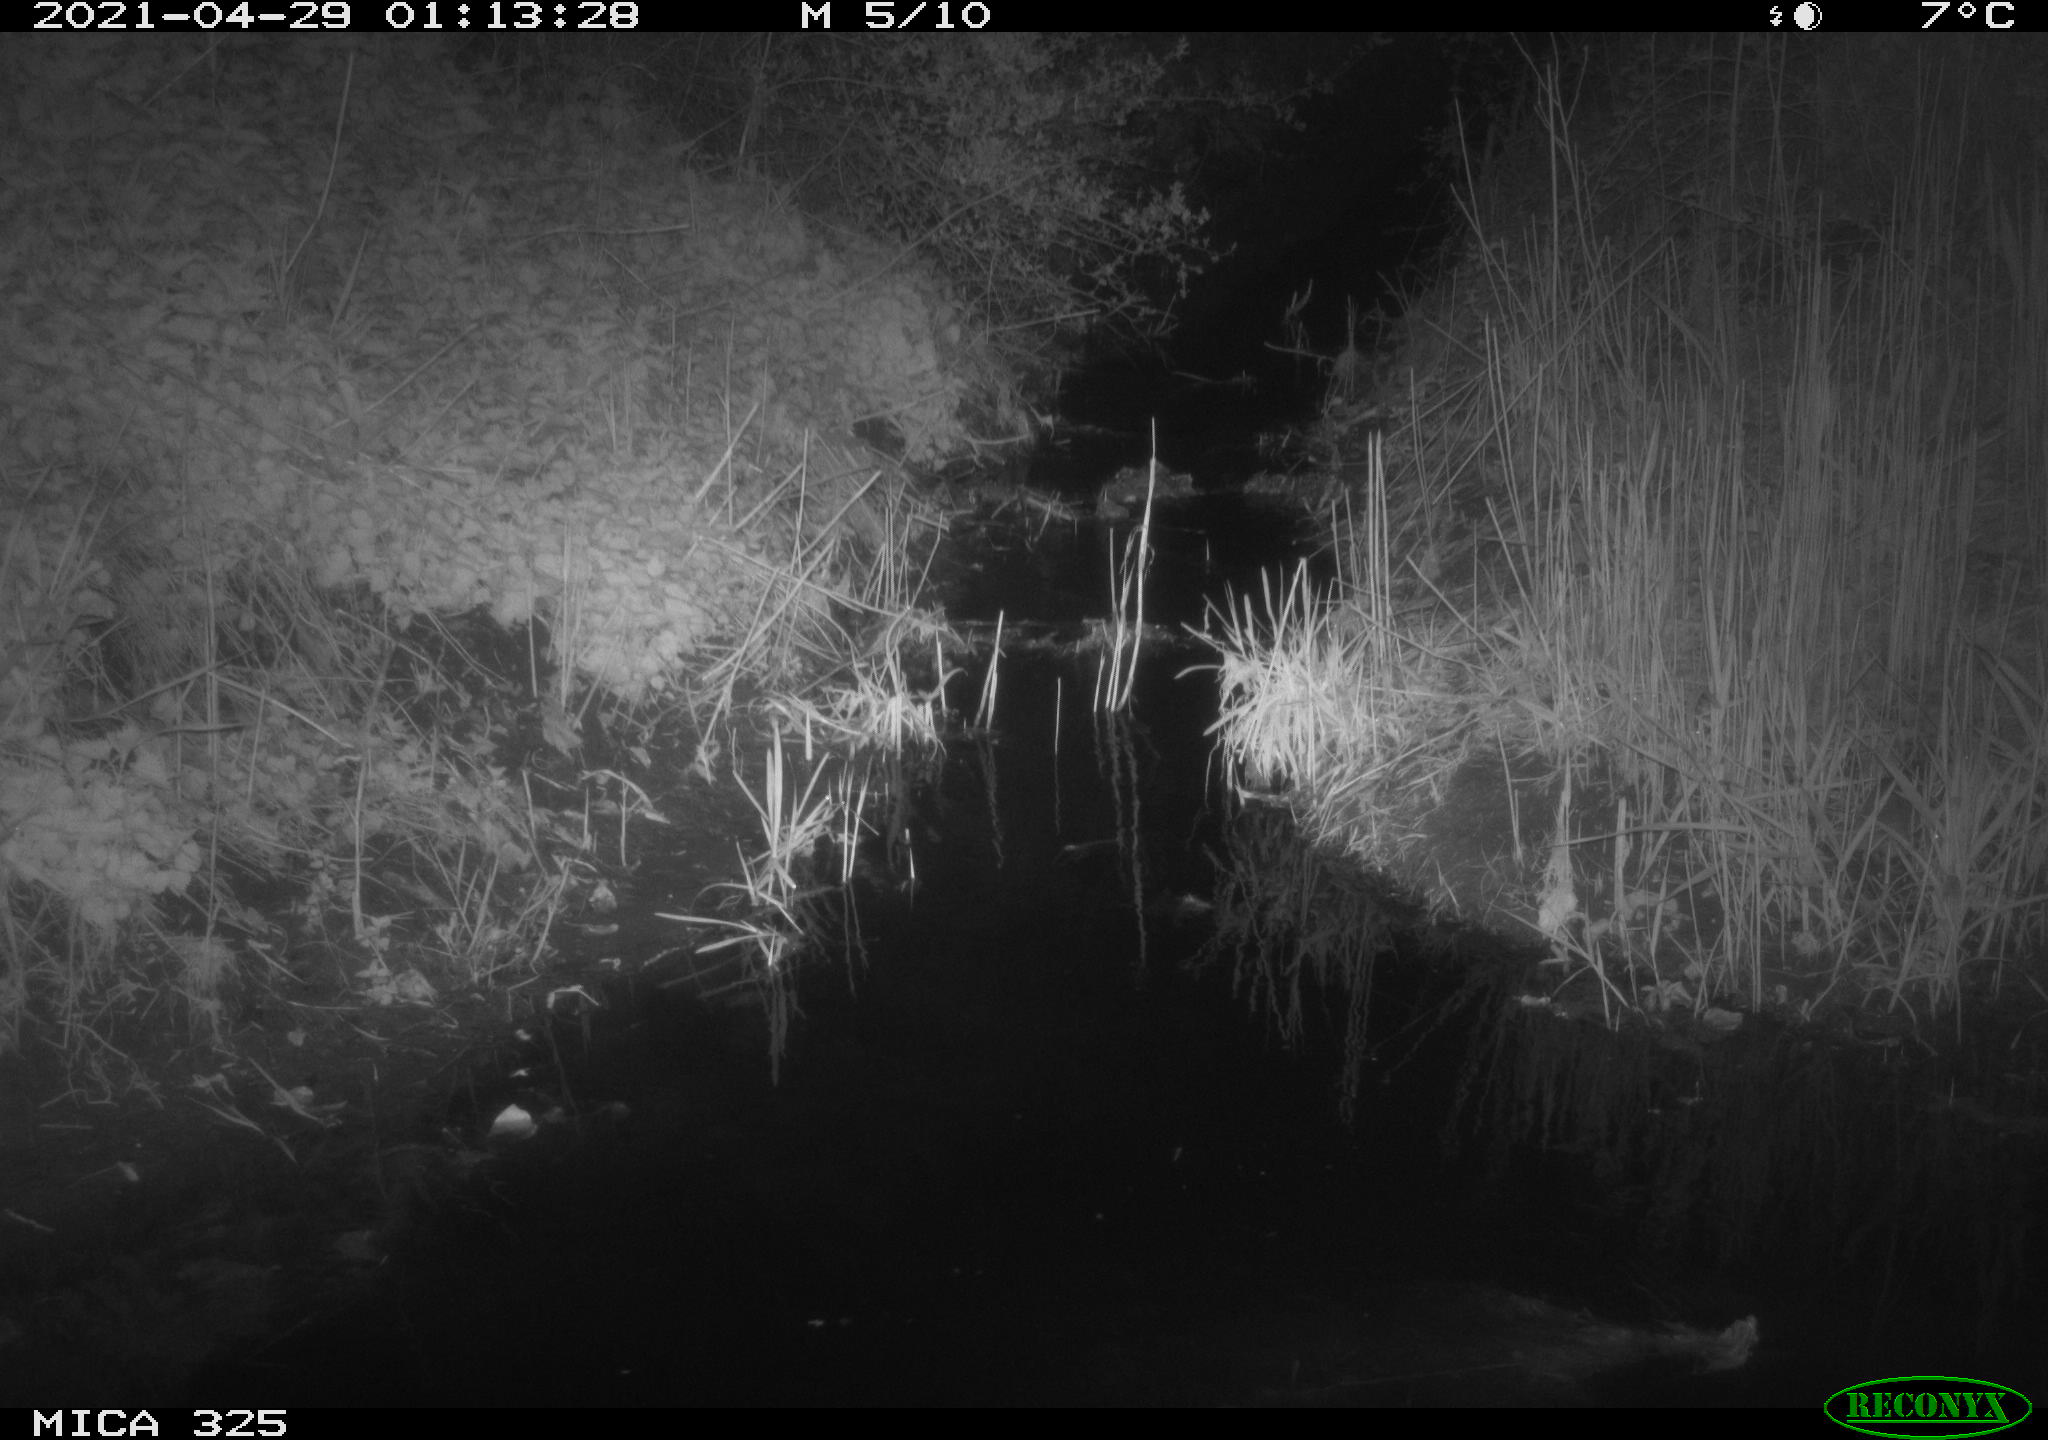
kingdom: Animalia
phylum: Chordata
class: Mammalia
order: Rodentia
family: Muridae
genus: Rattus
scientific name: Rattus norvegicus
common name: Brown rat
